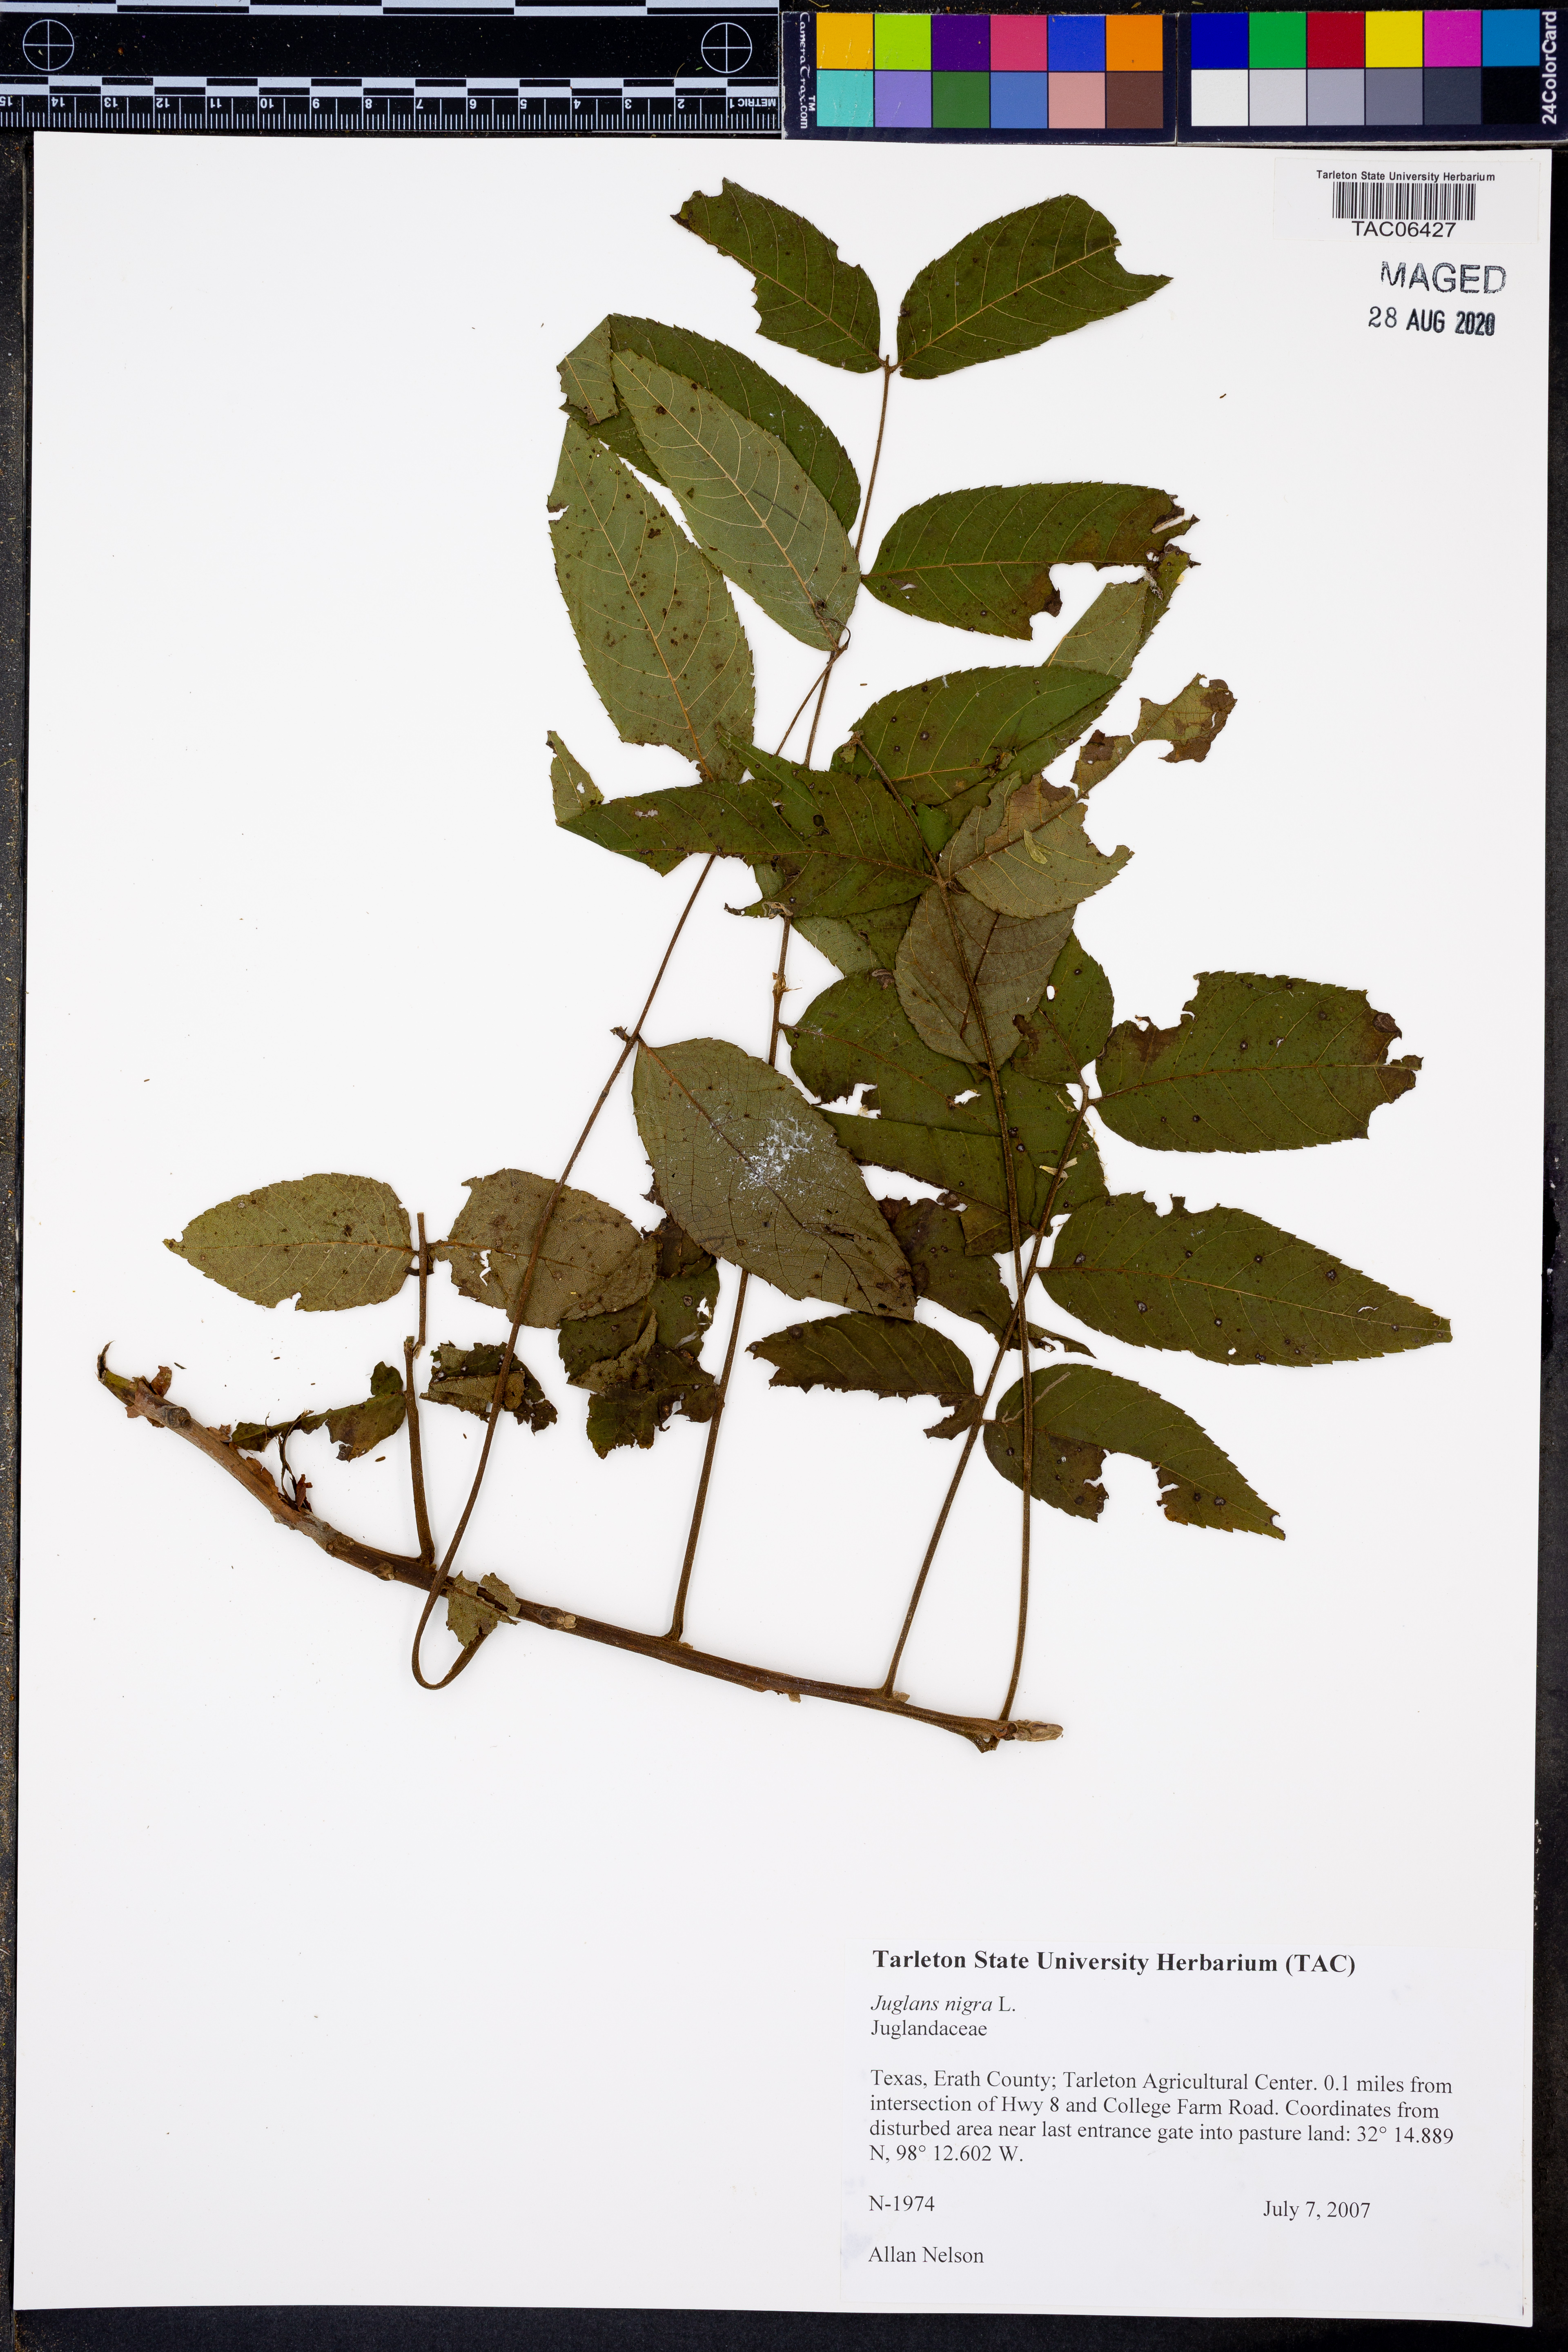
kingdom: Plantae
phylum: Tracheophyta
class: Magnoliopsida
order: Fagales
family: Juglandaceae
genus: Juglans
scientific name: Juglans nigra
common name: Black walnut
